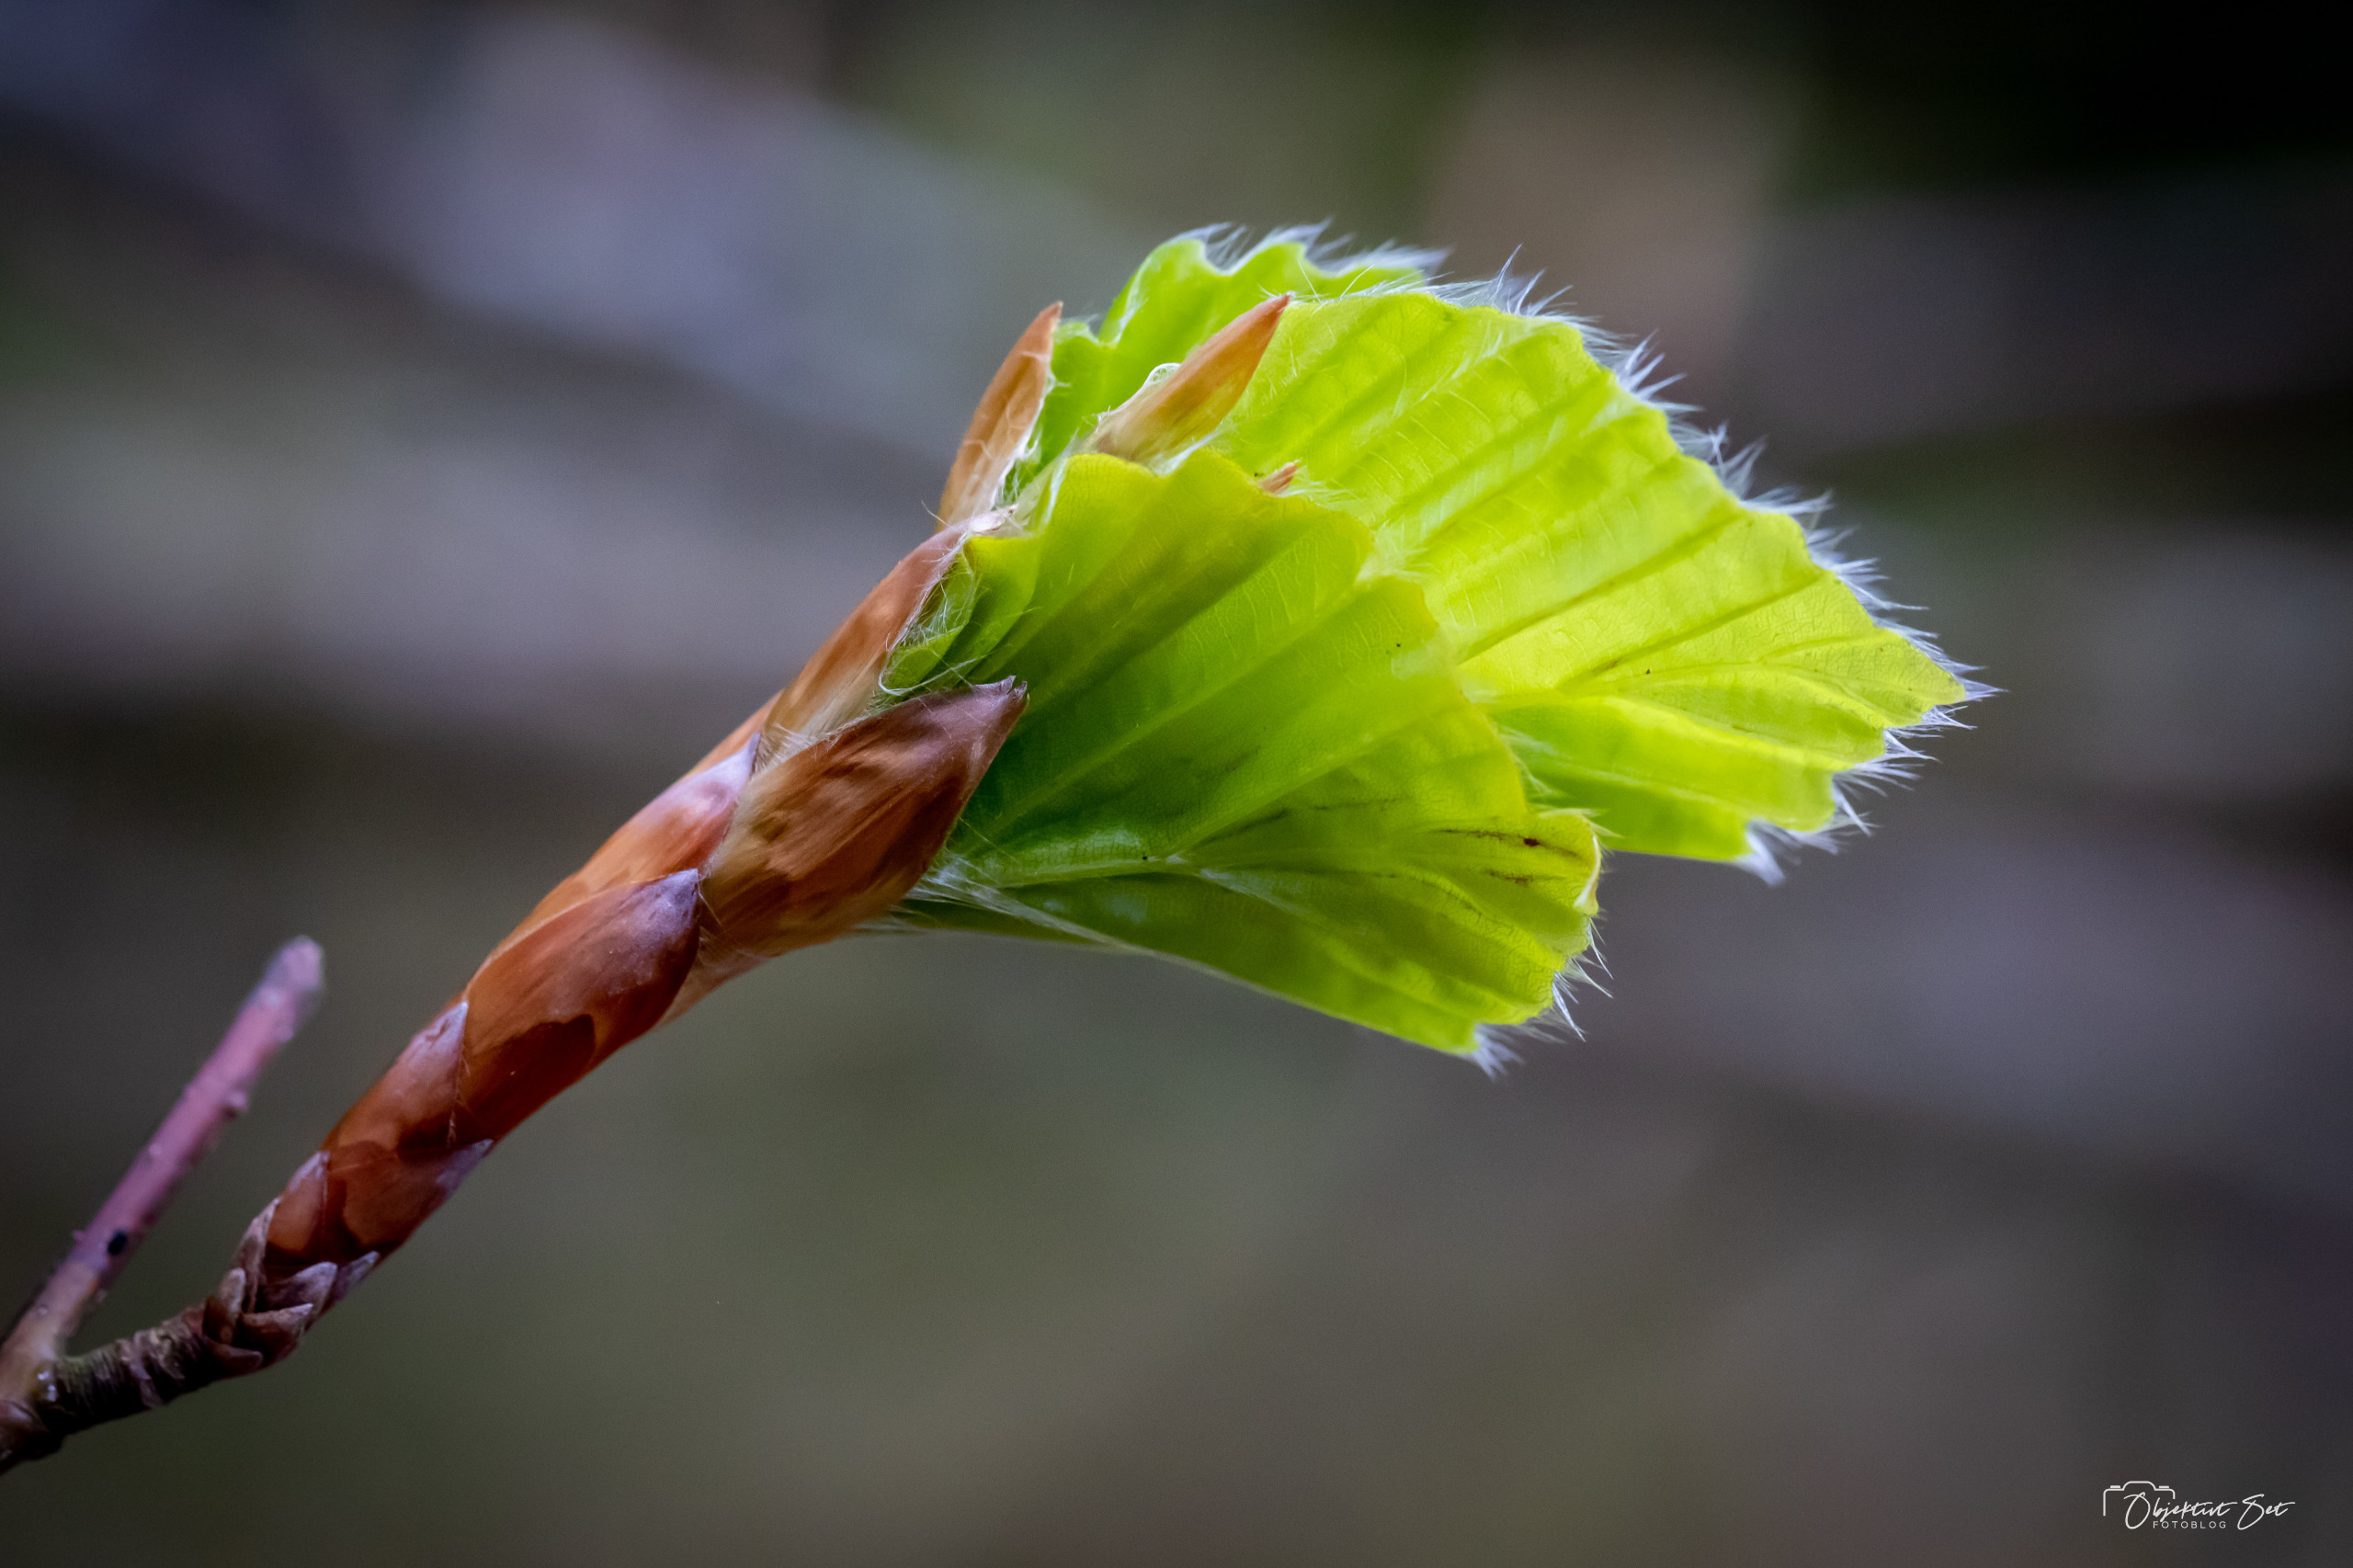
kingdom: Plantae
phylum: Tracheophyta
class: Magnoliopsida
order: Fagales
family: Fagaceae
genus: Fagus
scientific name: Fagus sylvatica
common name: Bøg
